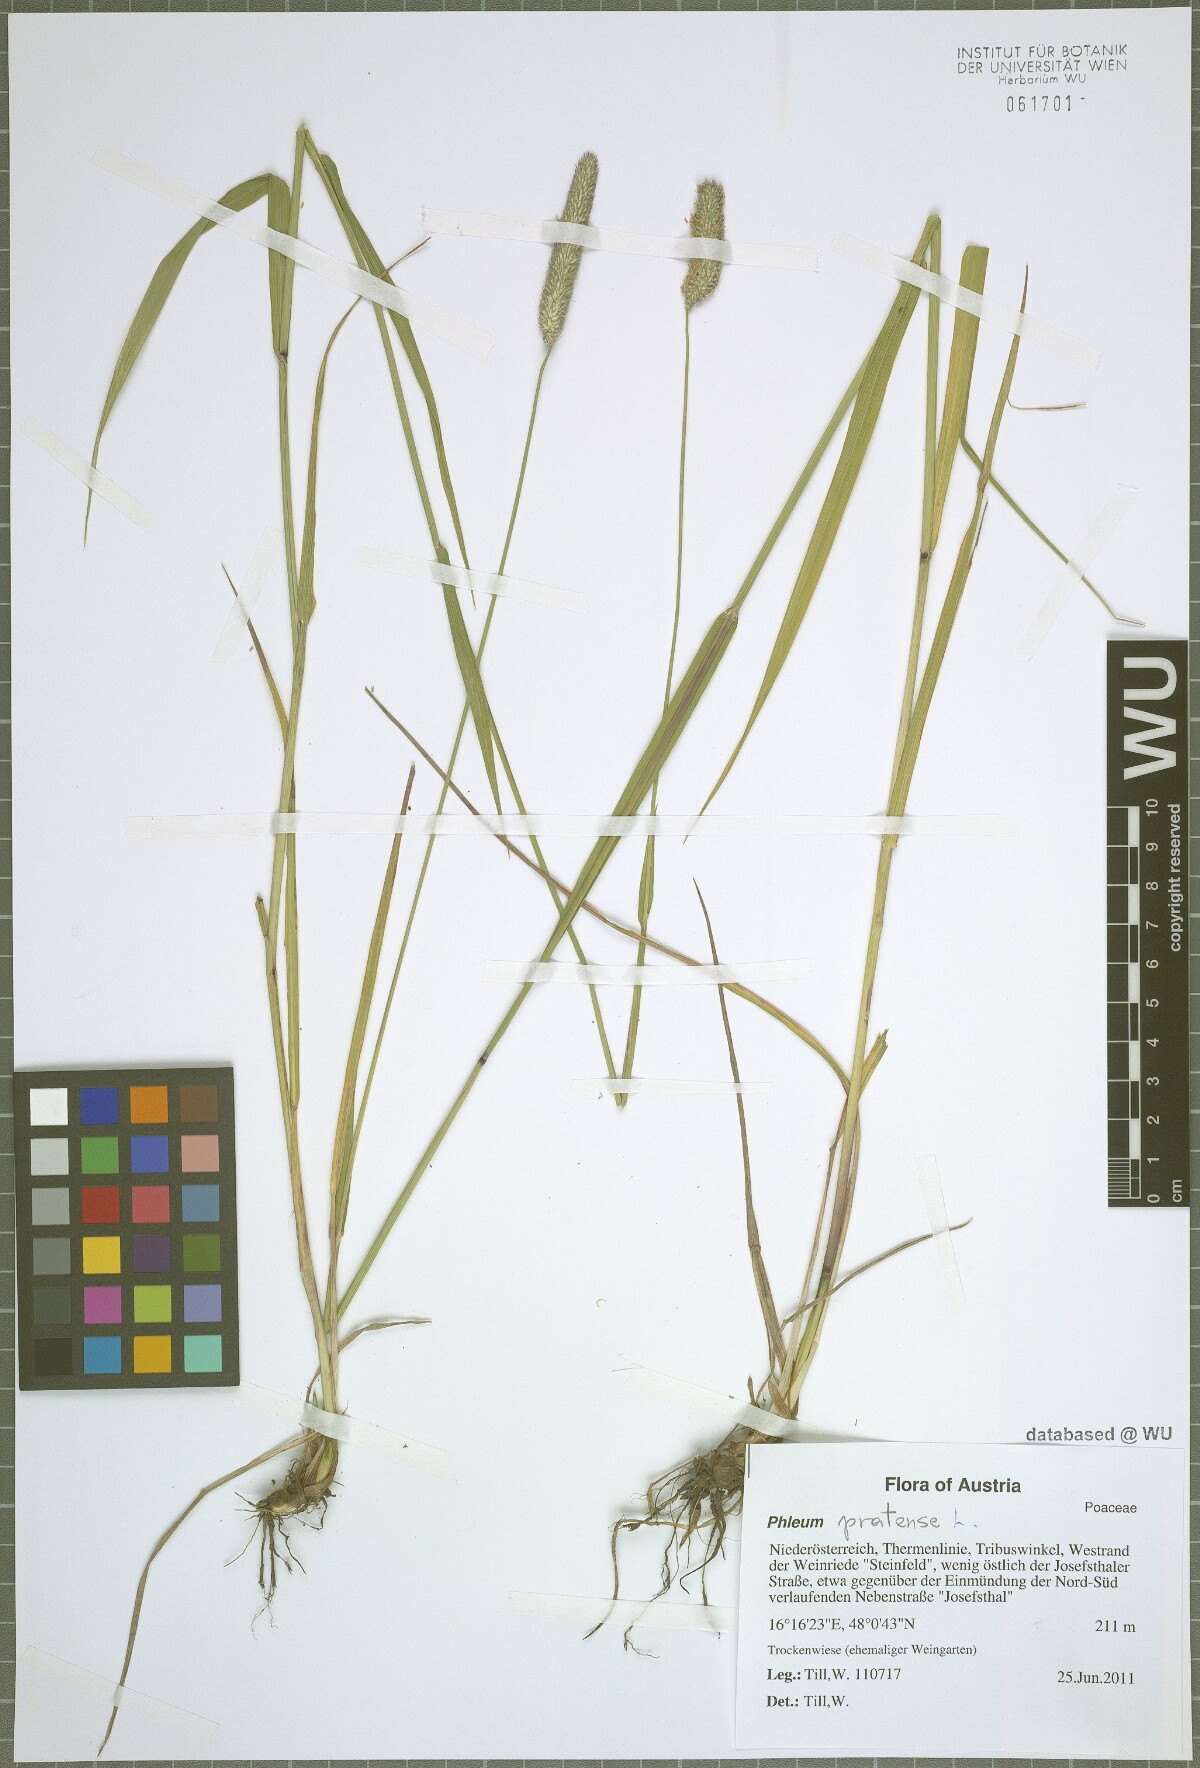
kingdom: Plantae
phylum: Tracheophyta
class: Liliopsida
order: Poales
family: Poaceae
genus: Phleum
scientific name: Phleum pratense
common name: Timothy grass
